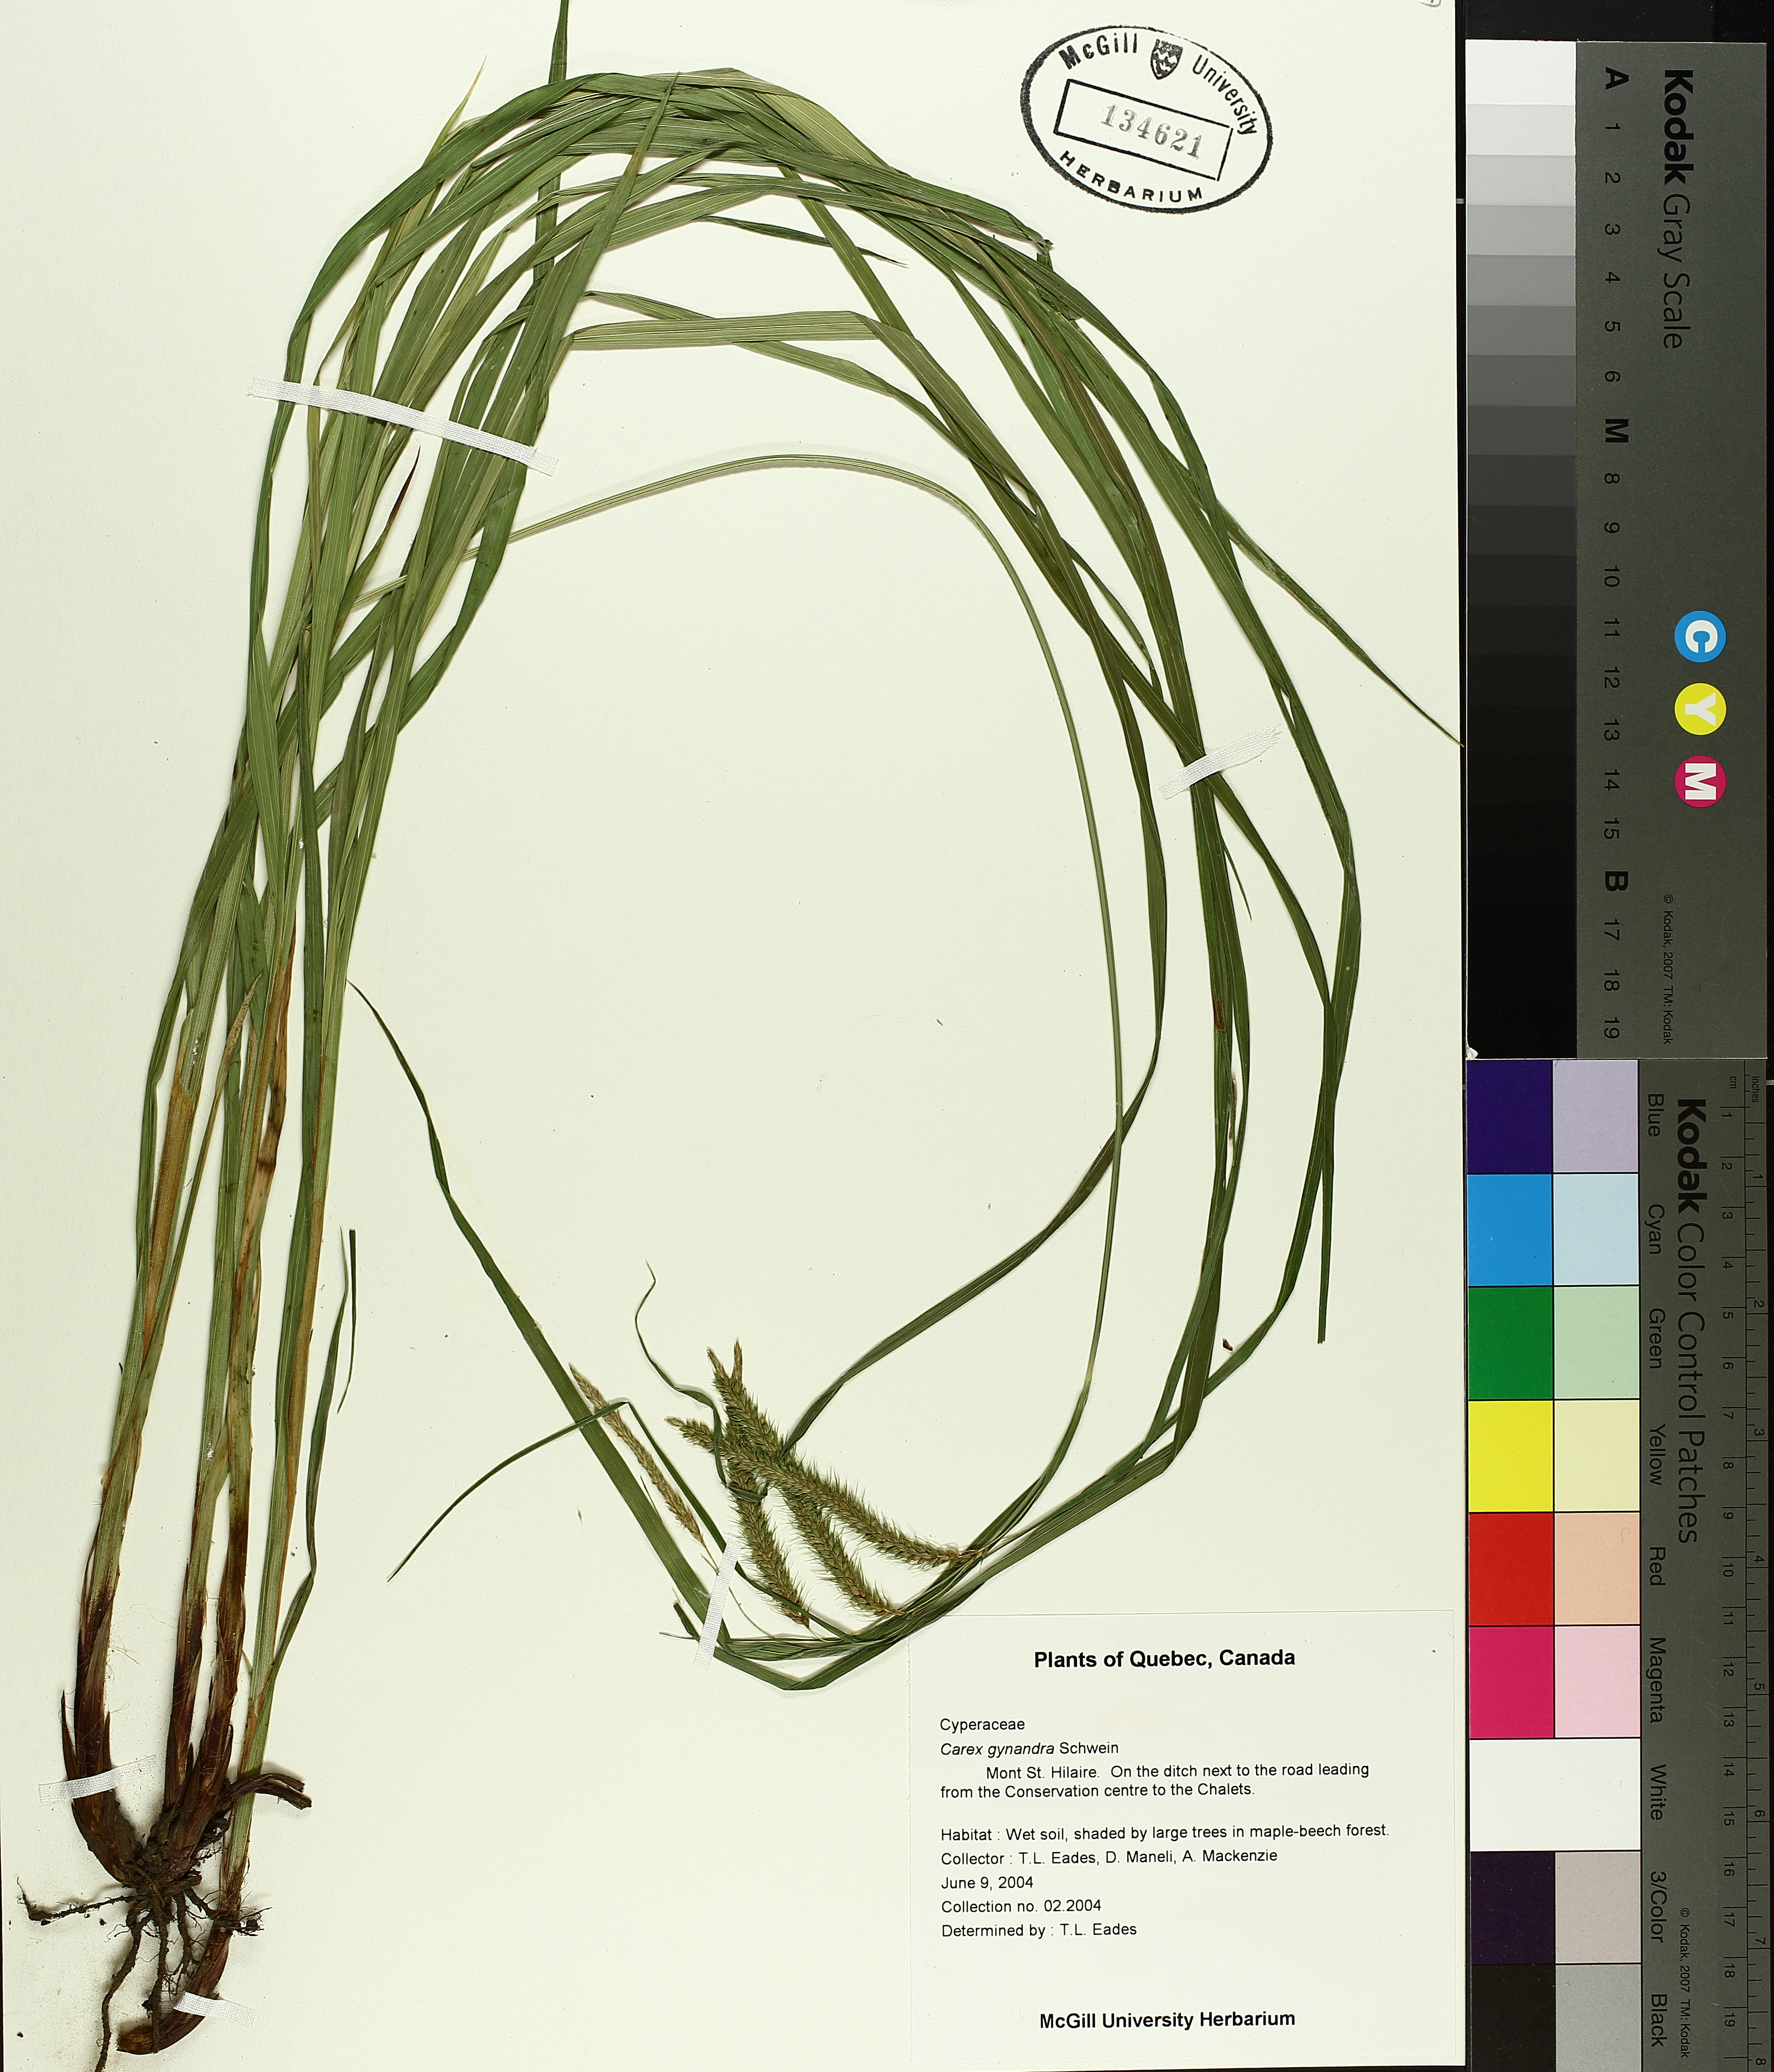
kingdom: Plantae
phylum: Tracheophyta
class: Liliopsida
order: Poales
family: Cyperaceae
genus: Carex
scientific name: Carex gynandra
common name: Nodding sedge
